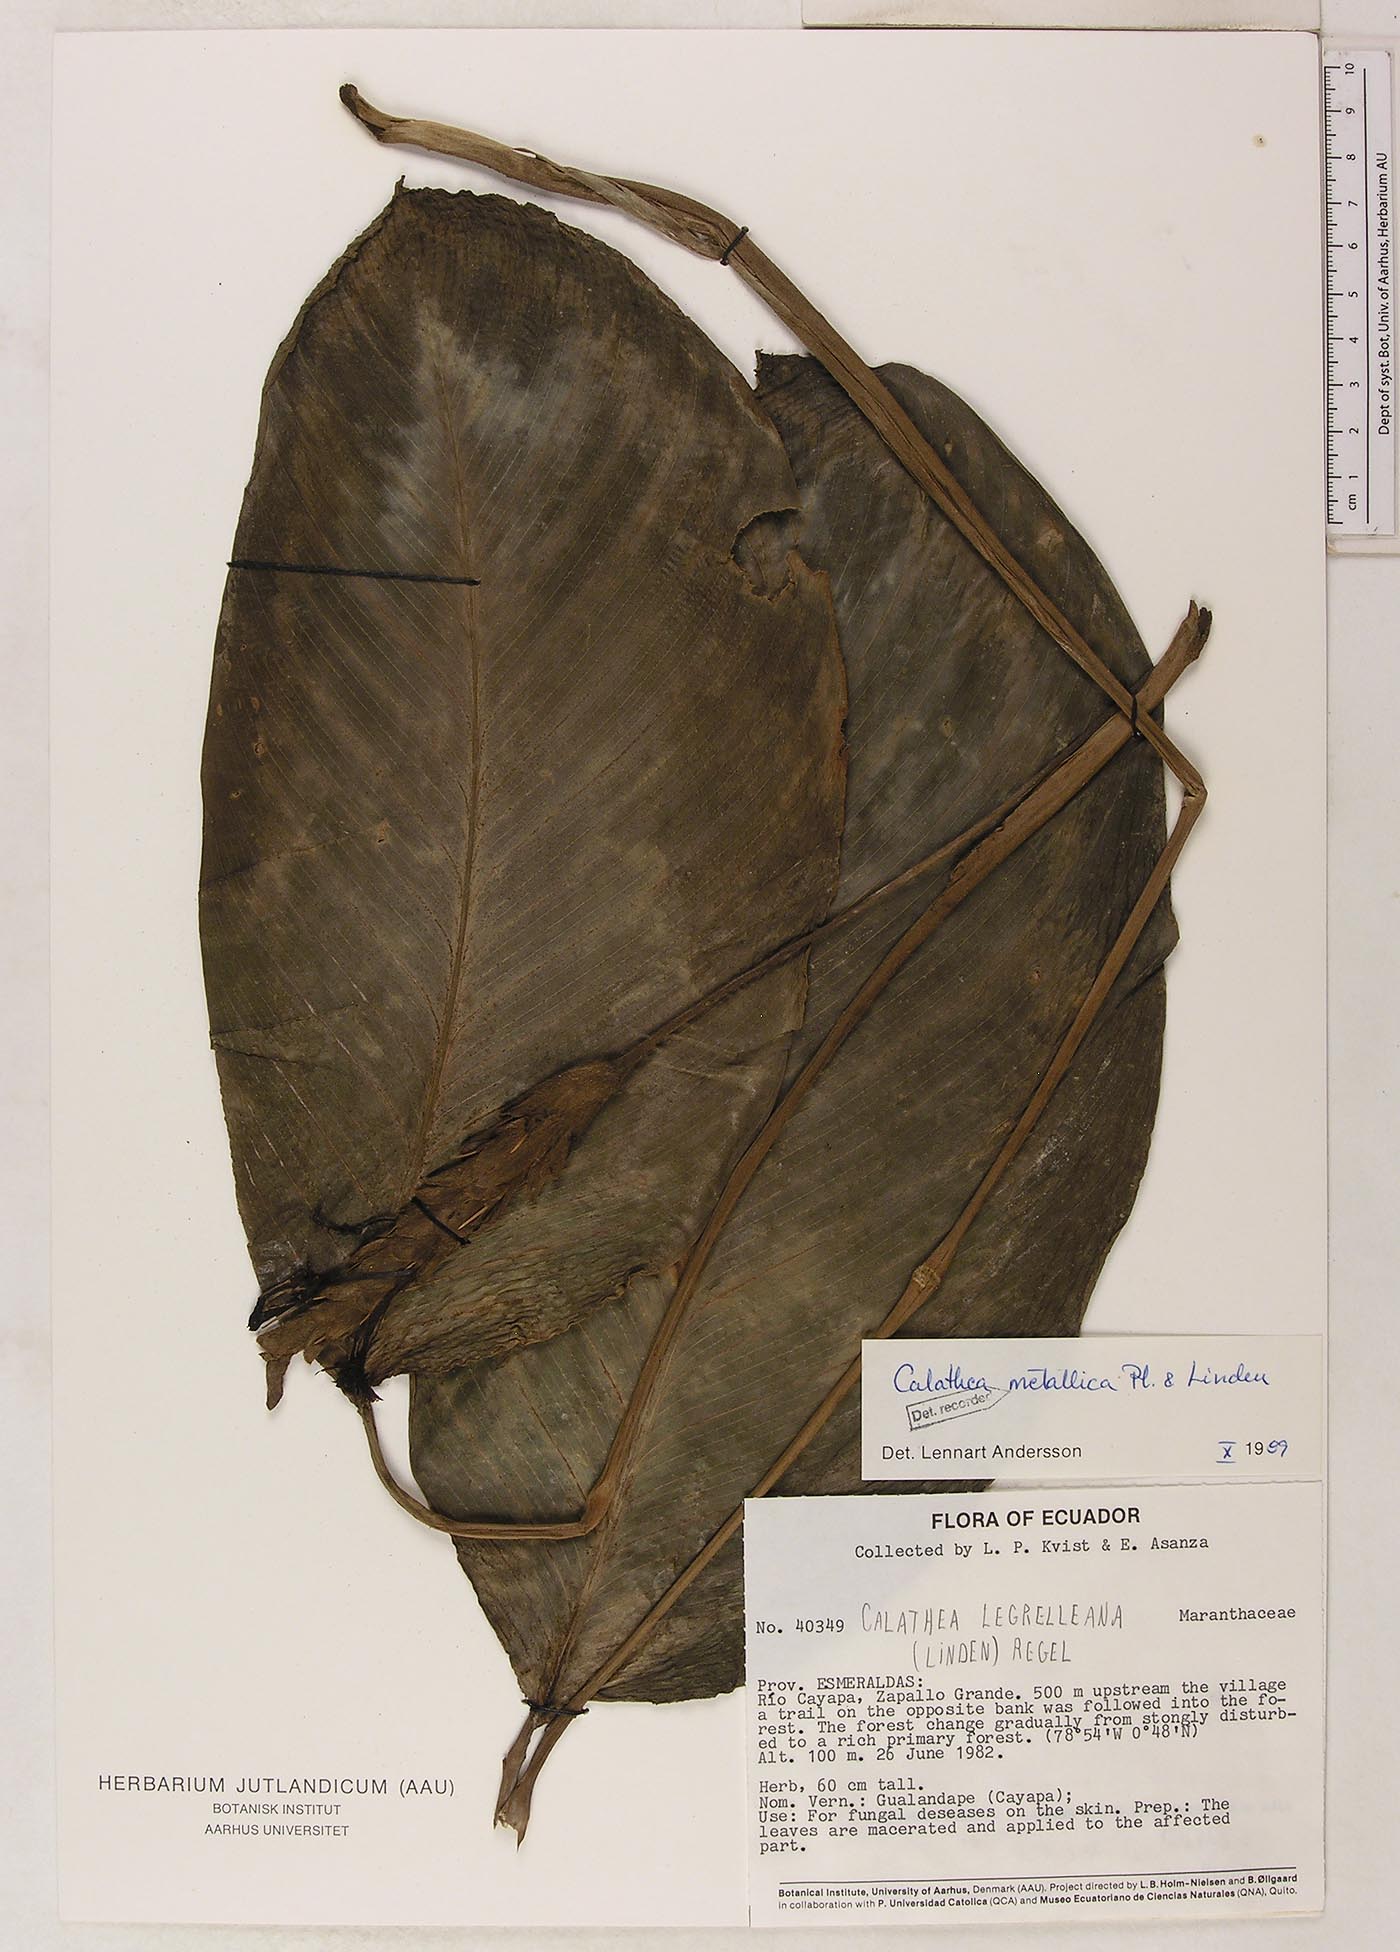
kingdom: Plantae
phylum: Tracheophyta
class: Liliopsida
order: Zingiberales
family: Marantaceae
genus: Goeppertia
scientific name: Goeppertia metallica
